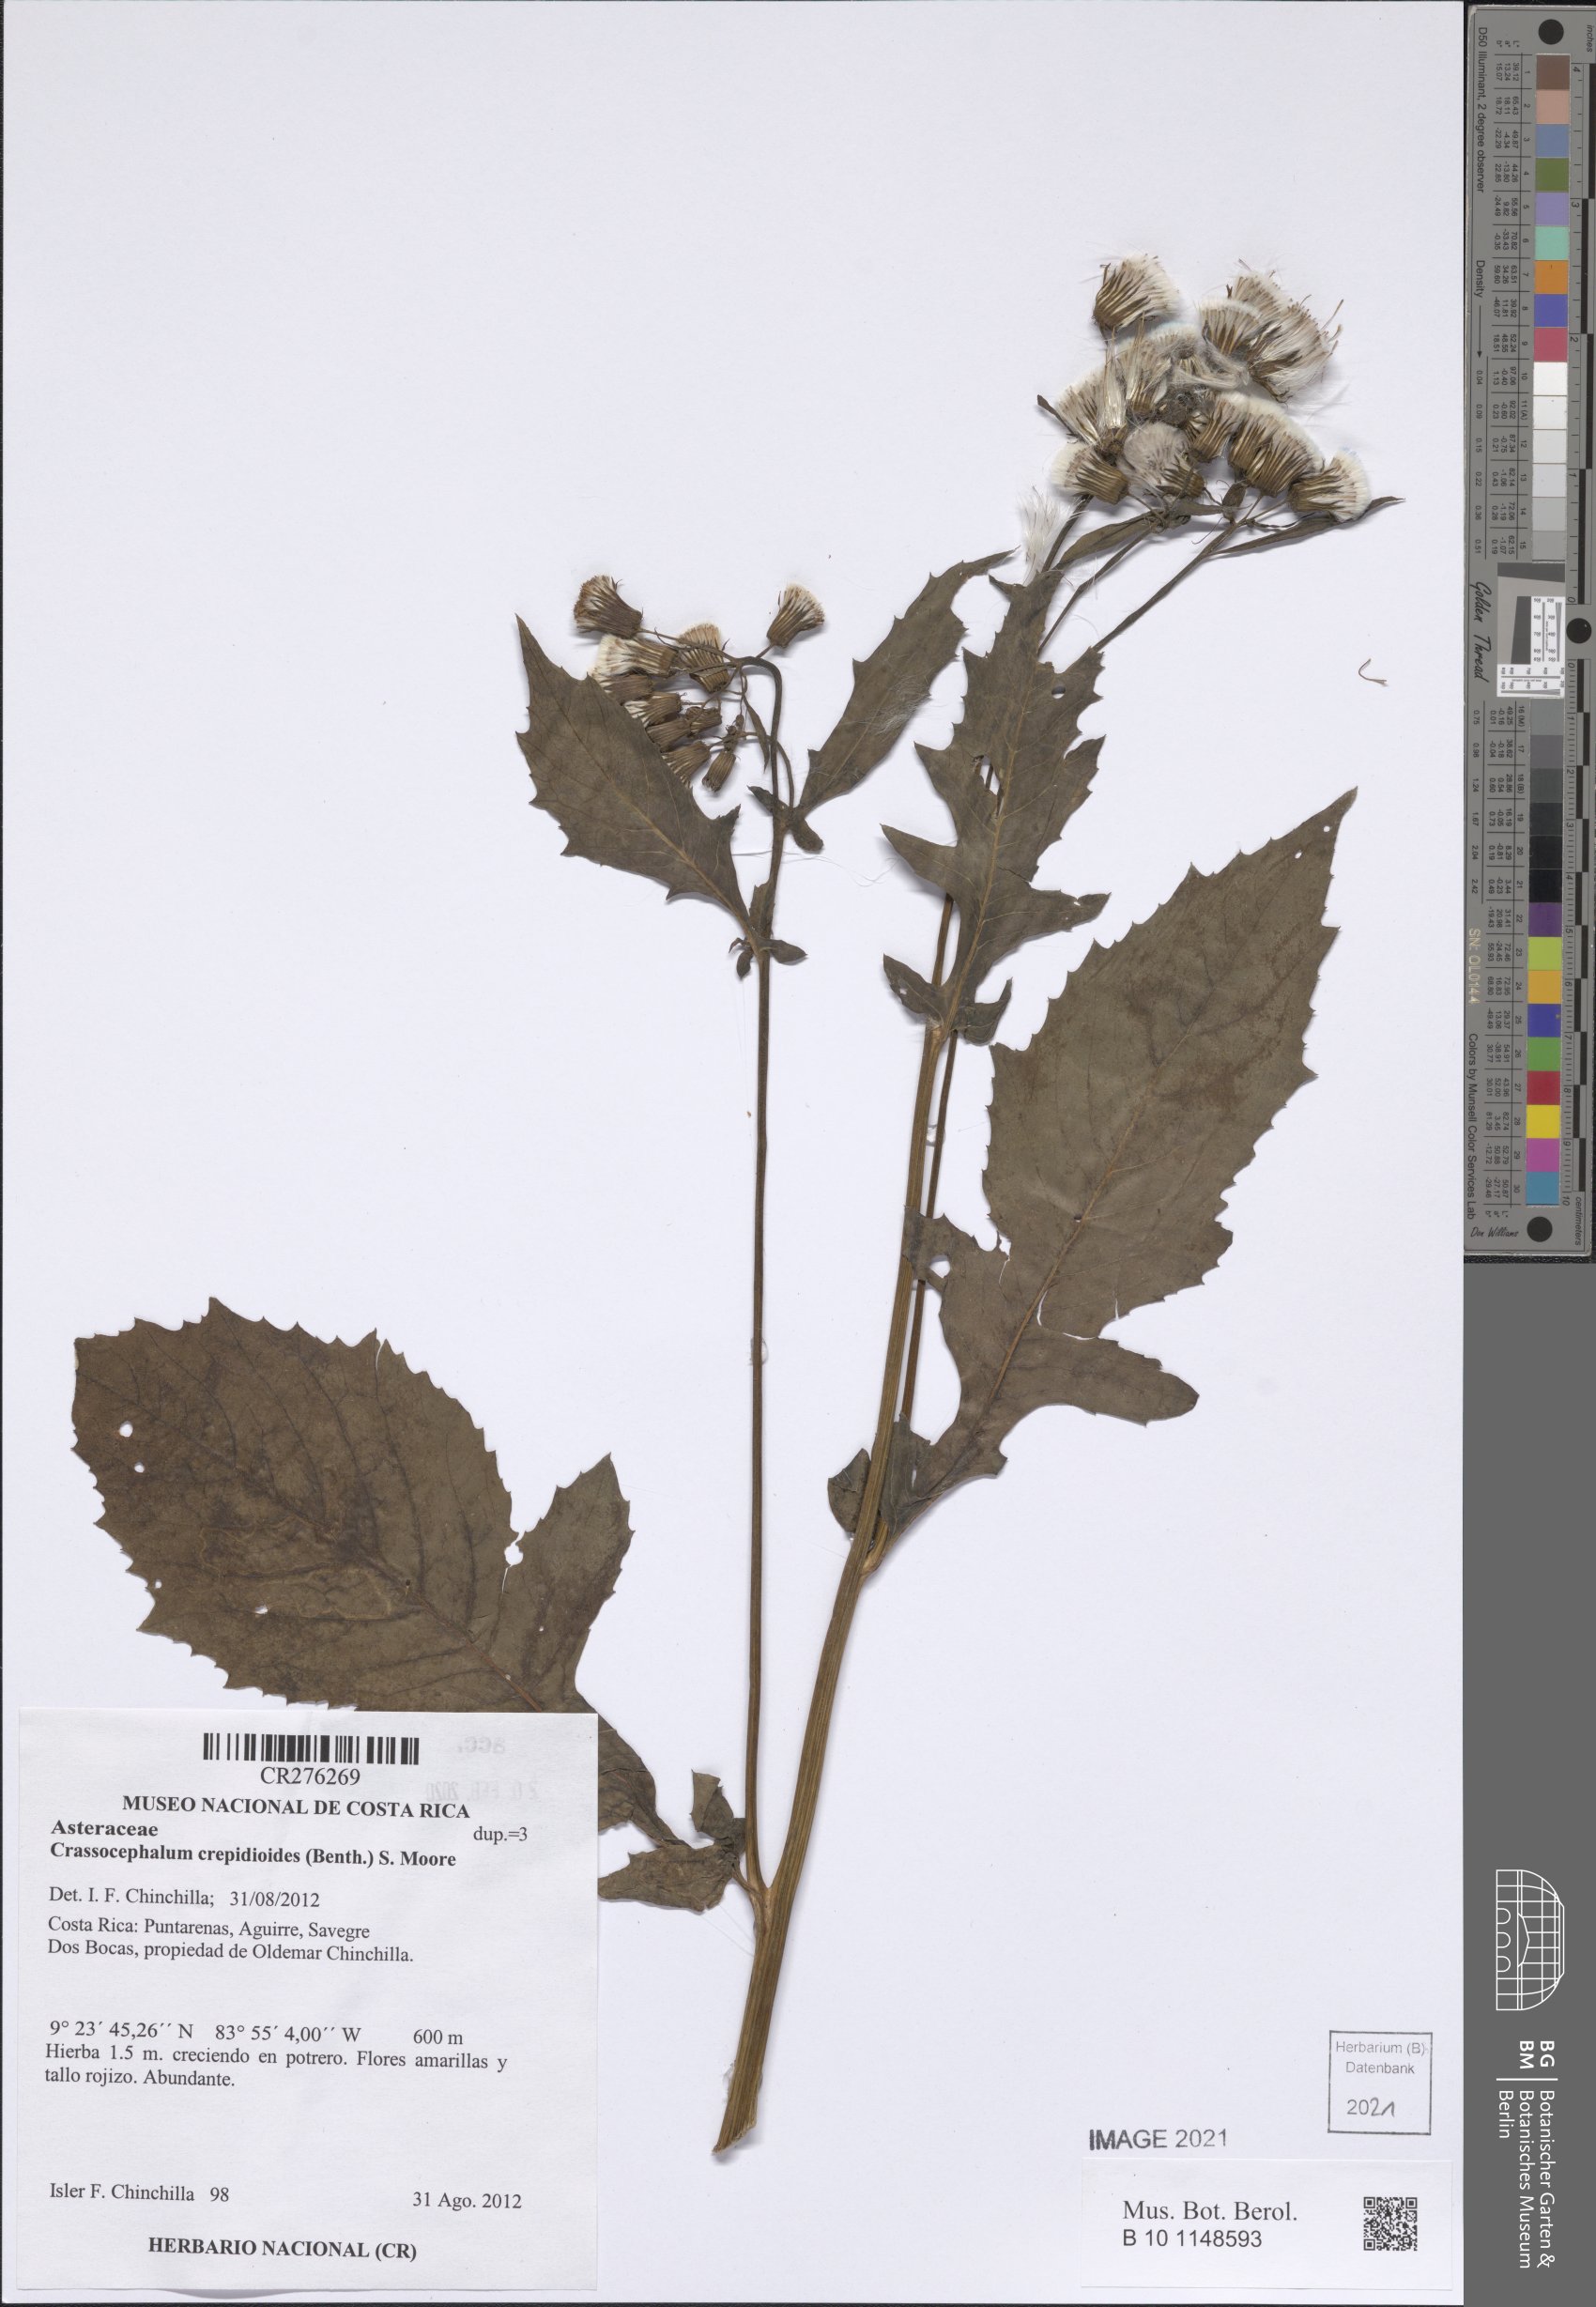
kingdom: Plantae
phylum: Tracheophyta
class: Magnoliopsida
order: Asterales
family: Asteraceae
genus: Crassocephalum
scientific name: Crassocephalum crepidioides
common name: Redflower ragleaf
